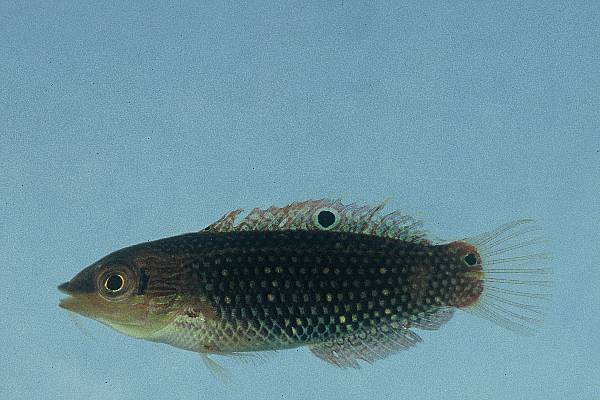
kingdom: Animalia
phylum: Chordata
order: Perciformes
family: Labridae
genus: Halichoeres
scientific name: Halichoeres argus
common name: Argus wrasse
